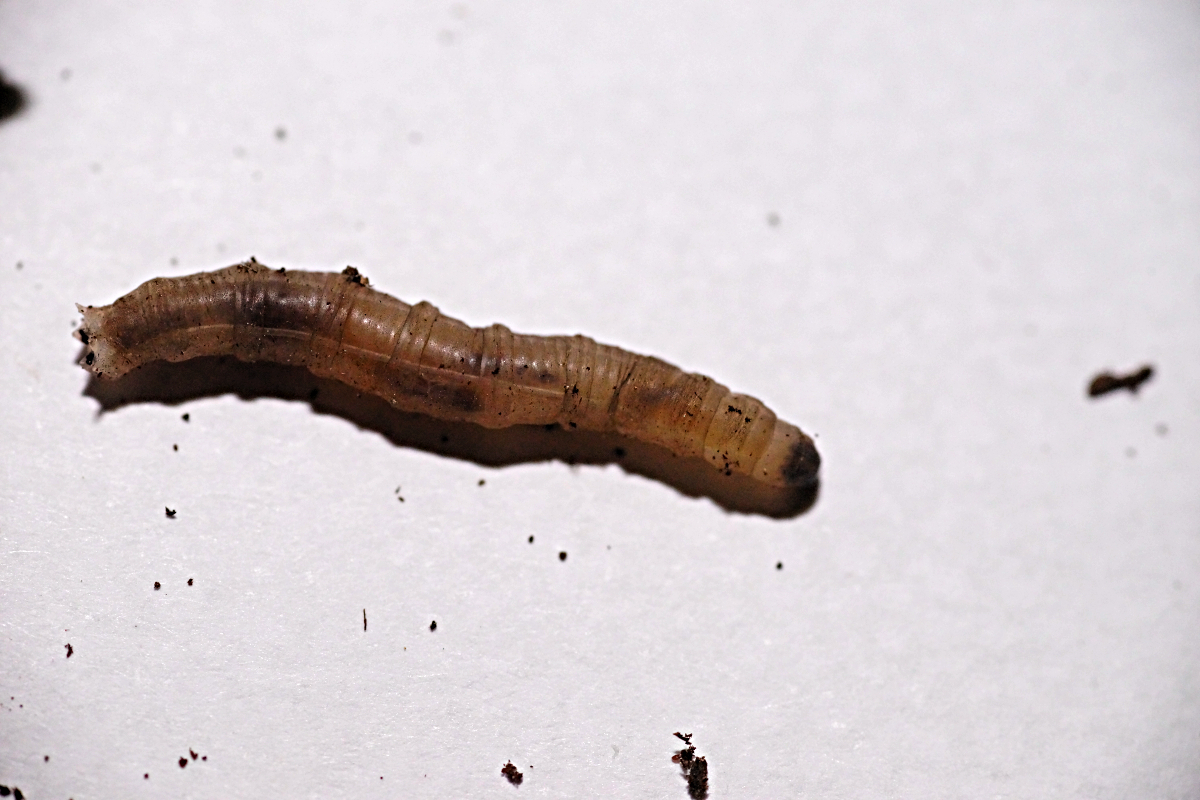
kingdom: Animalia
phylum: Arthropoda
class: Insecta
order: Diptera
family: Tipulidae
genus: Tipula
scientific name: Tipula unca
